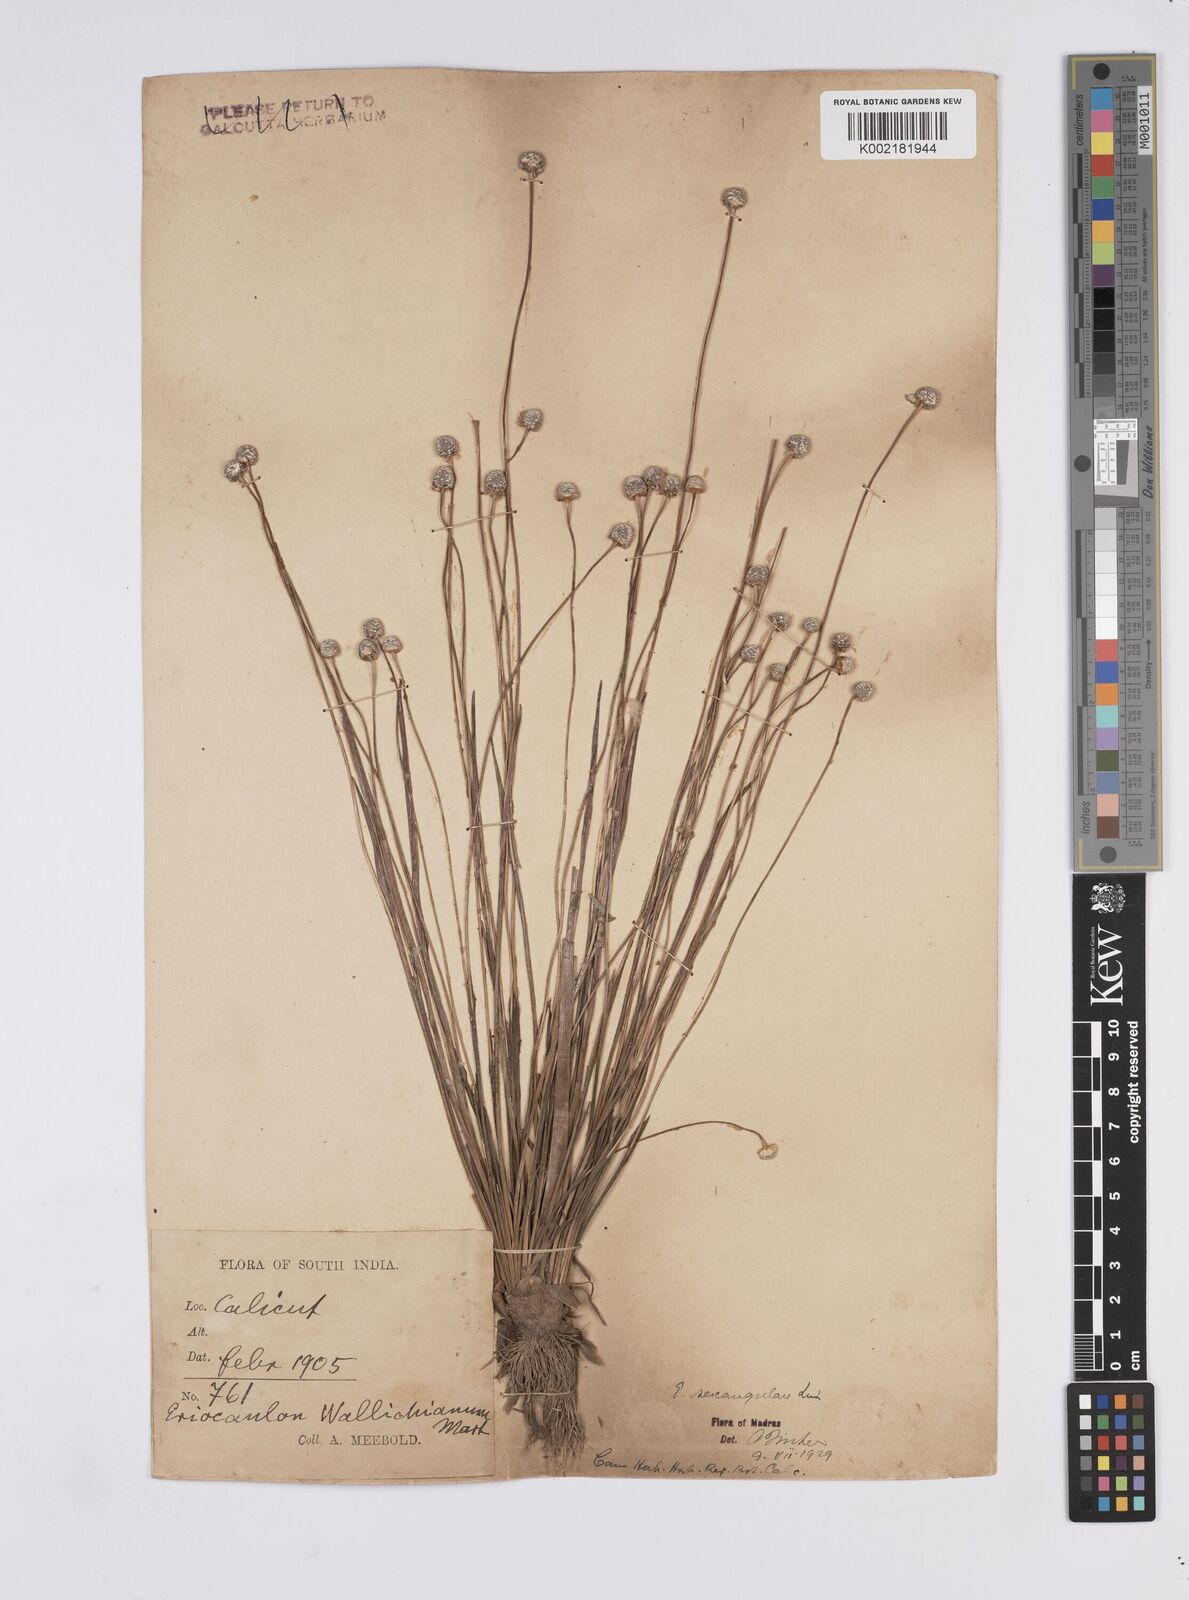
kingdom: Plantae
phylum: Tracheophyta
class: Liliopsida
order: Poales
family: Eriocaulaceae
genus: Eriocaulon
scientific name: Eriocaulon sexangulare
